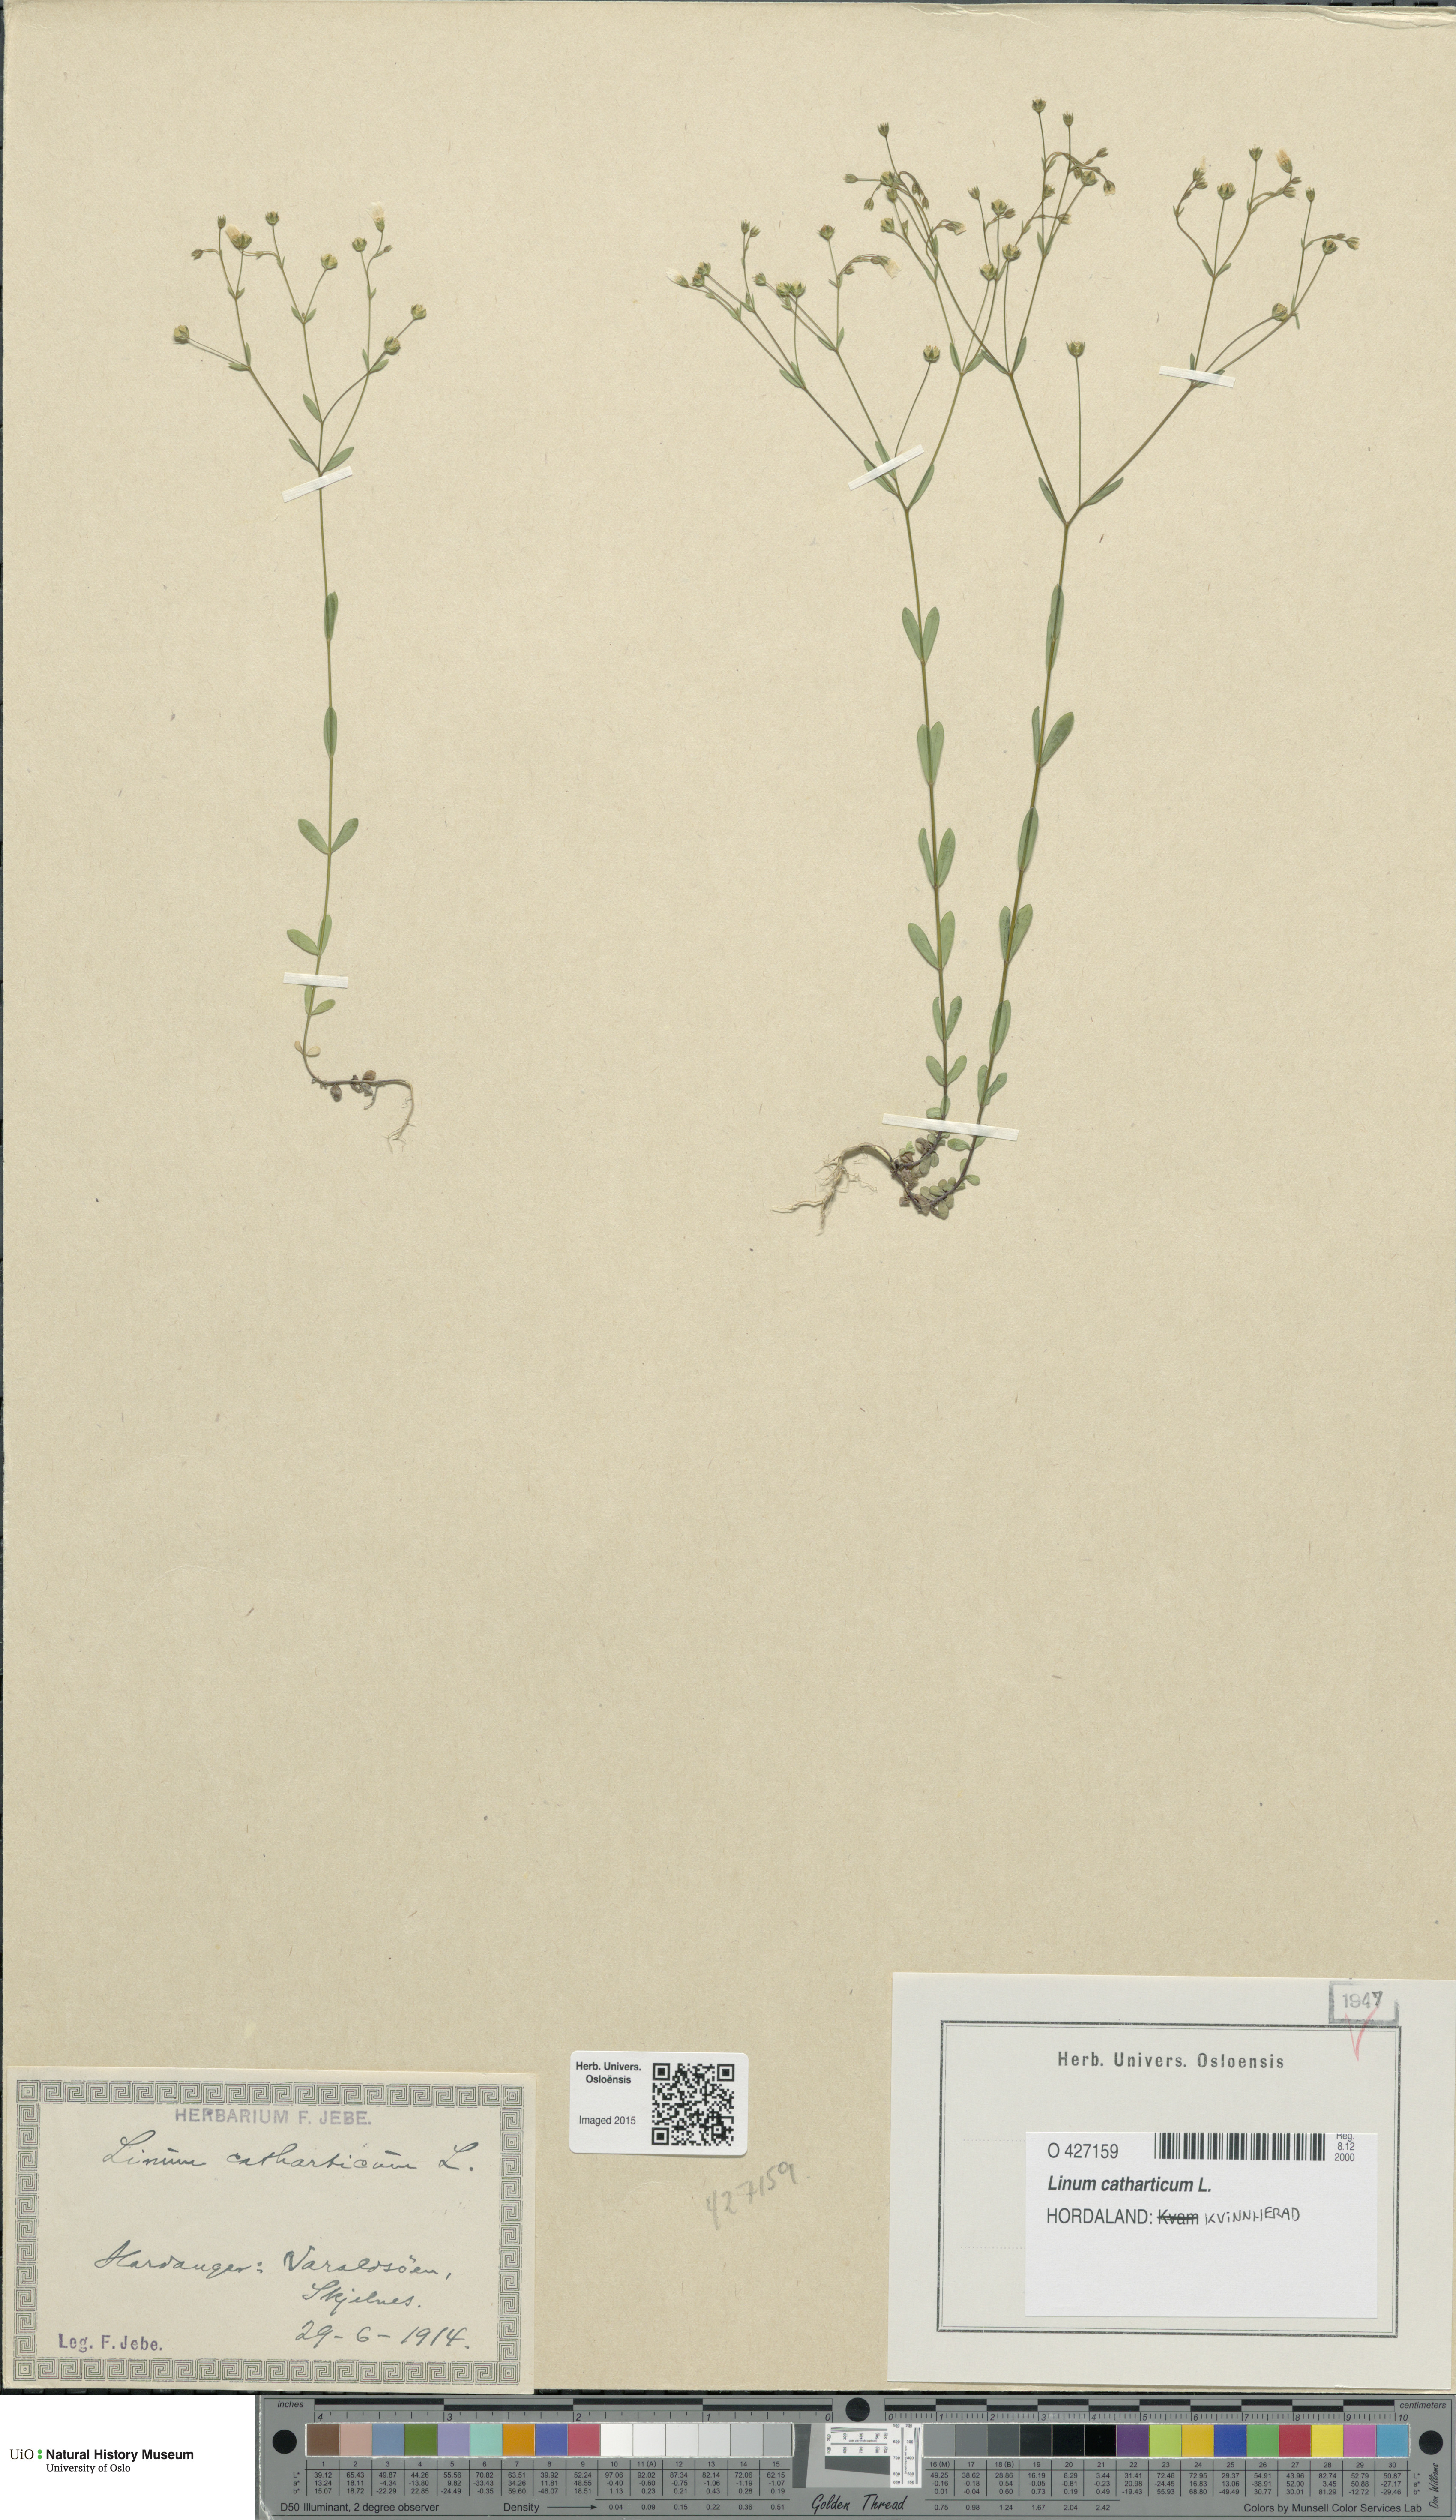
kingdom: Plantae
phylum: Tracheophyta
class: Magnoliopsida
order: Malpighiales
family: Linaceae
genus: Linum
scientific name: Linum catharticum
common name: Fairy flax
